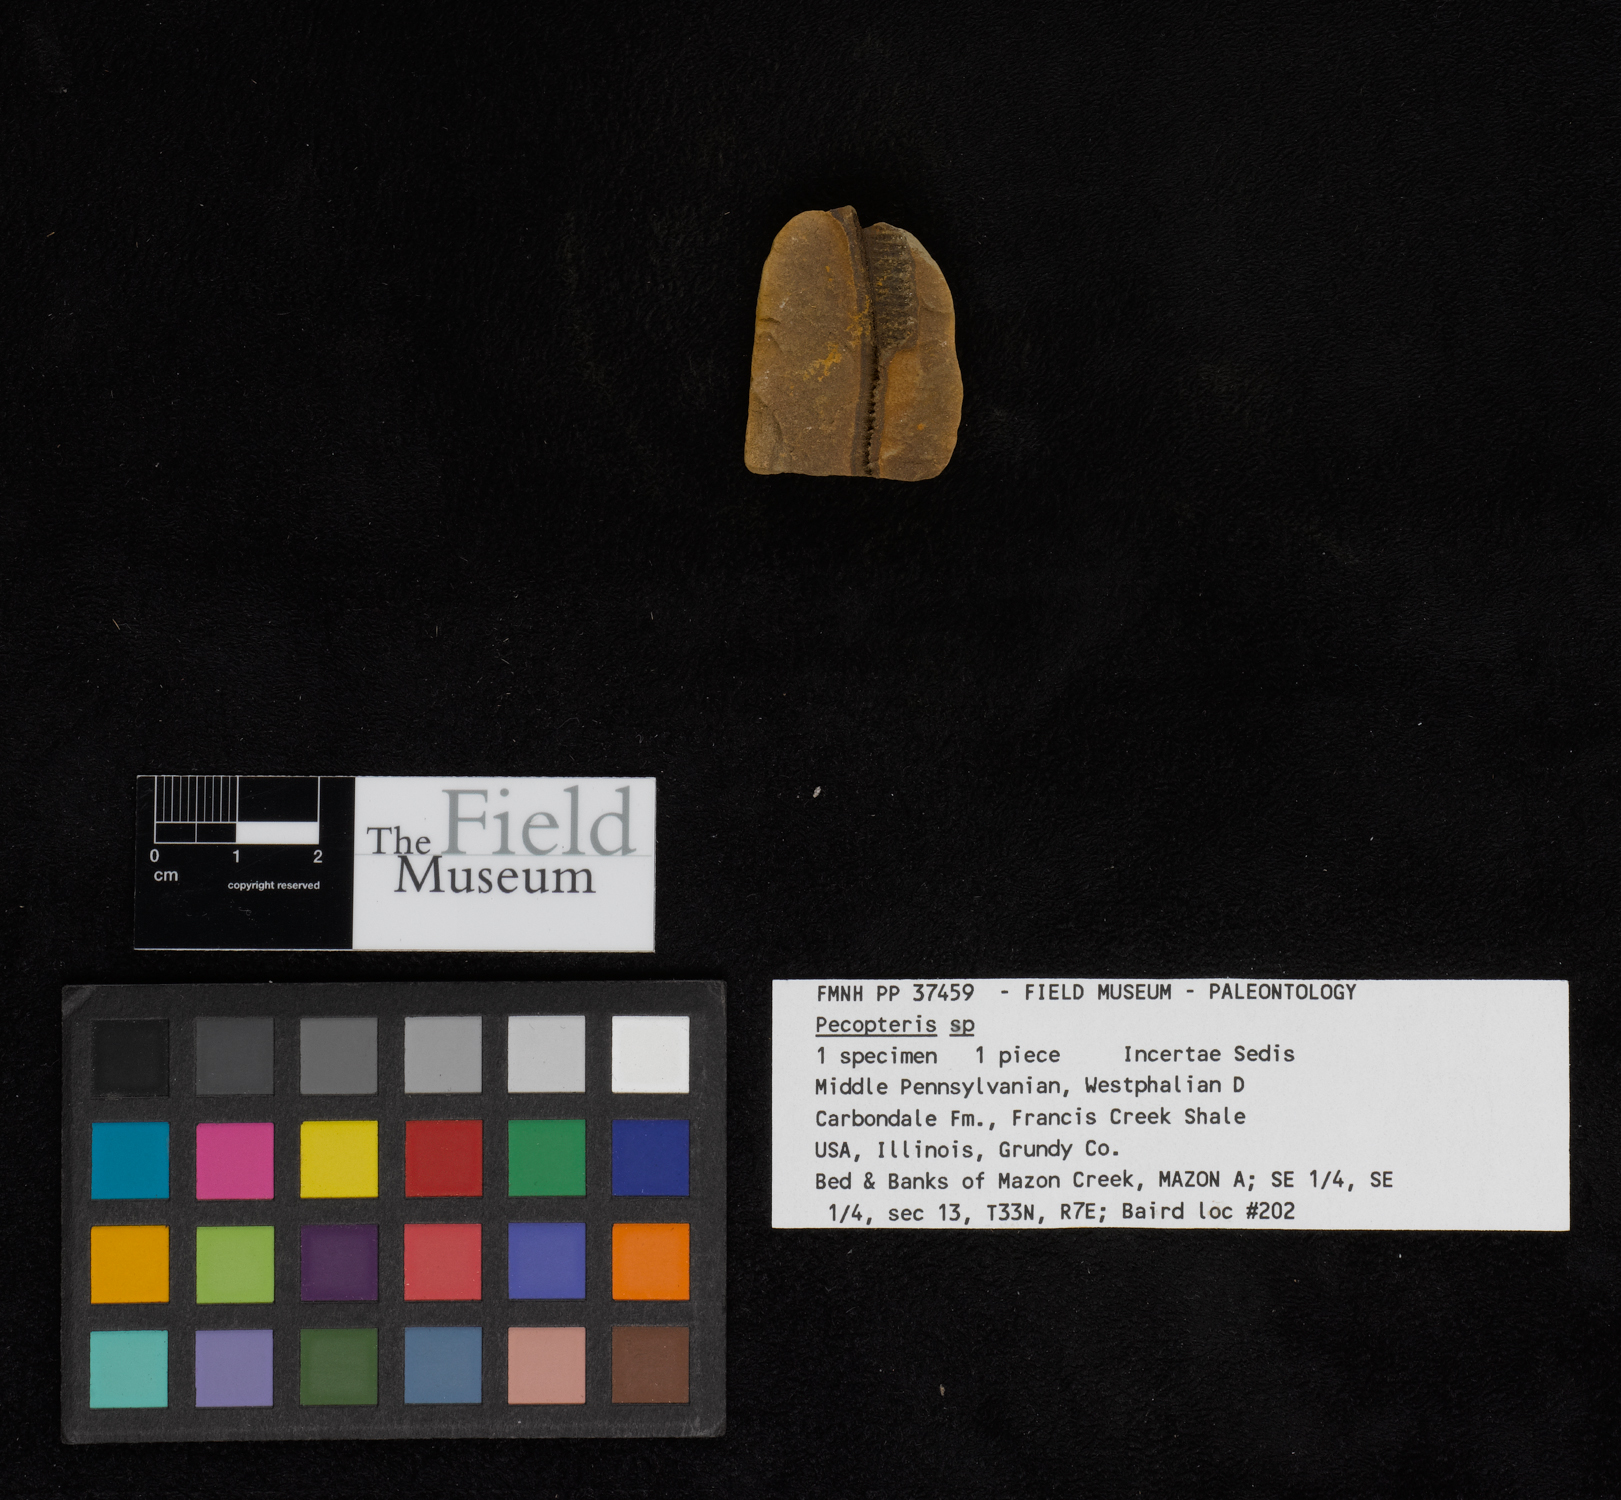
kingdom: Plantae
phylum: Tracheophyta
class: Polypodiopsida
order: Marattiales
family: Asterothecaceae
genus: Pecopteris
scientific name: Pecopteris
